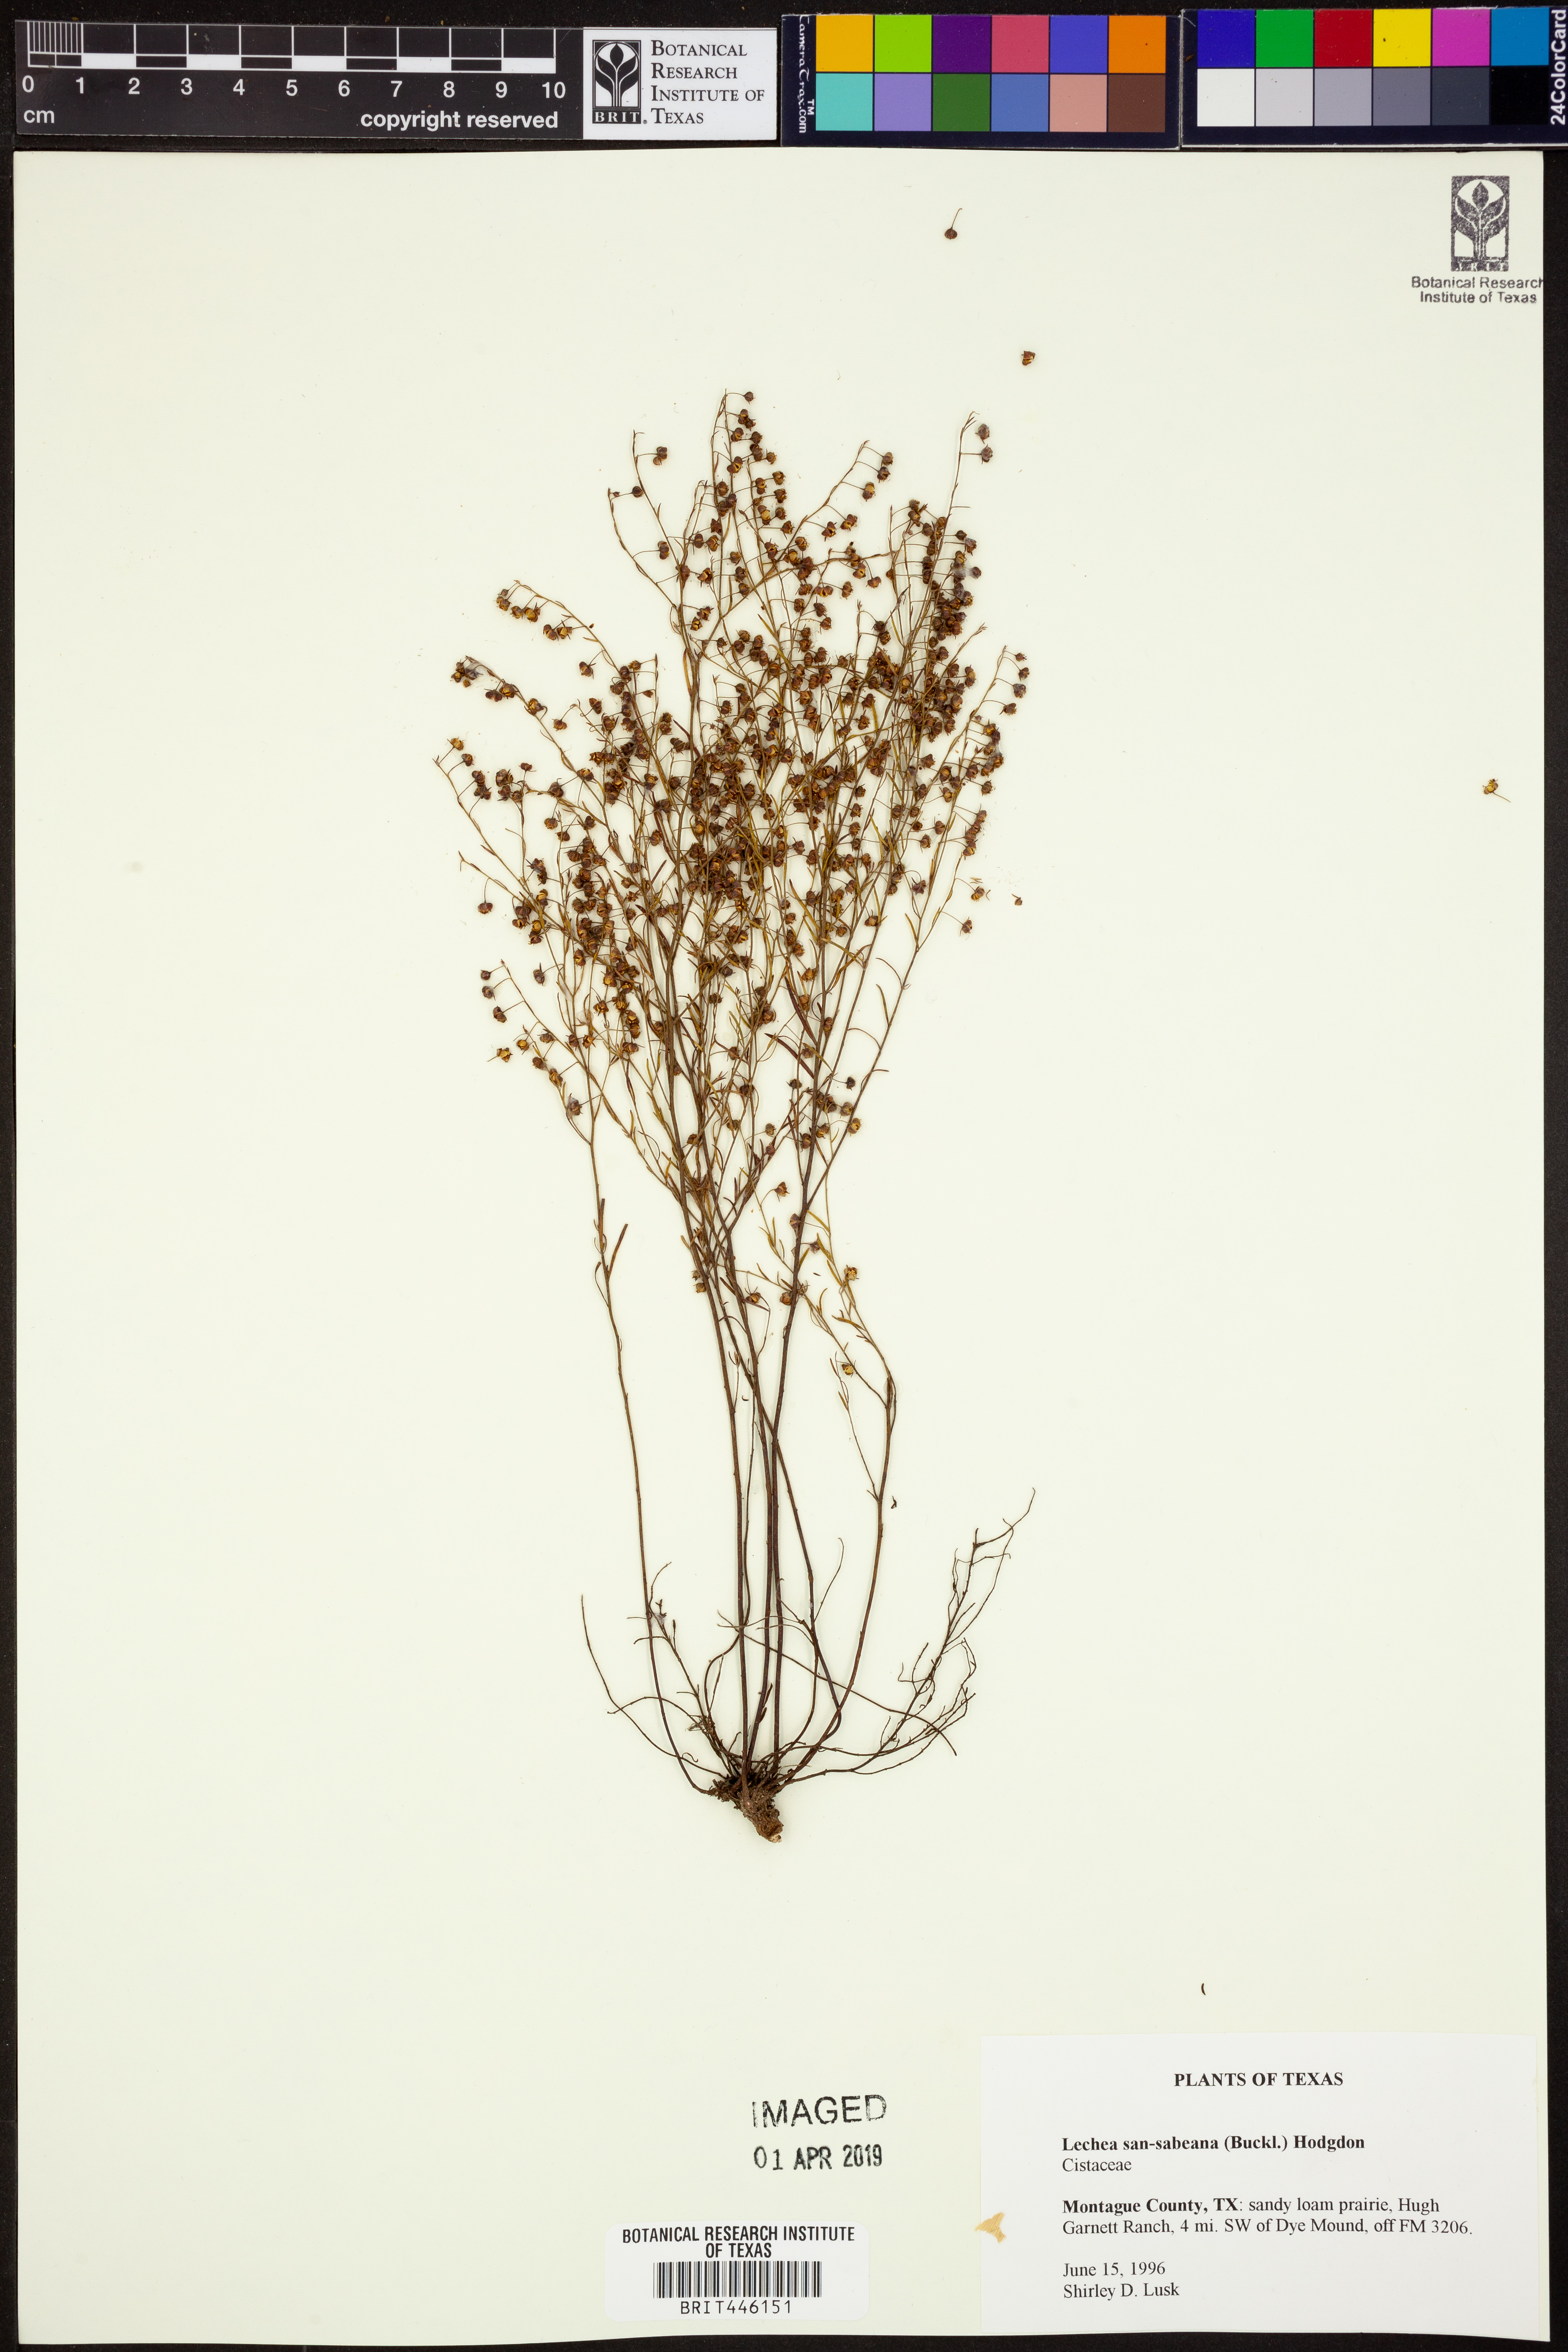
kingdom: Plantae
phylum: Tracheophyta
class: Magnoliopsida
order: Malvales
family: Cistaceae
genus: Lechea
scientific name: Lechea san-sabeana
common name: San saba pinweed
